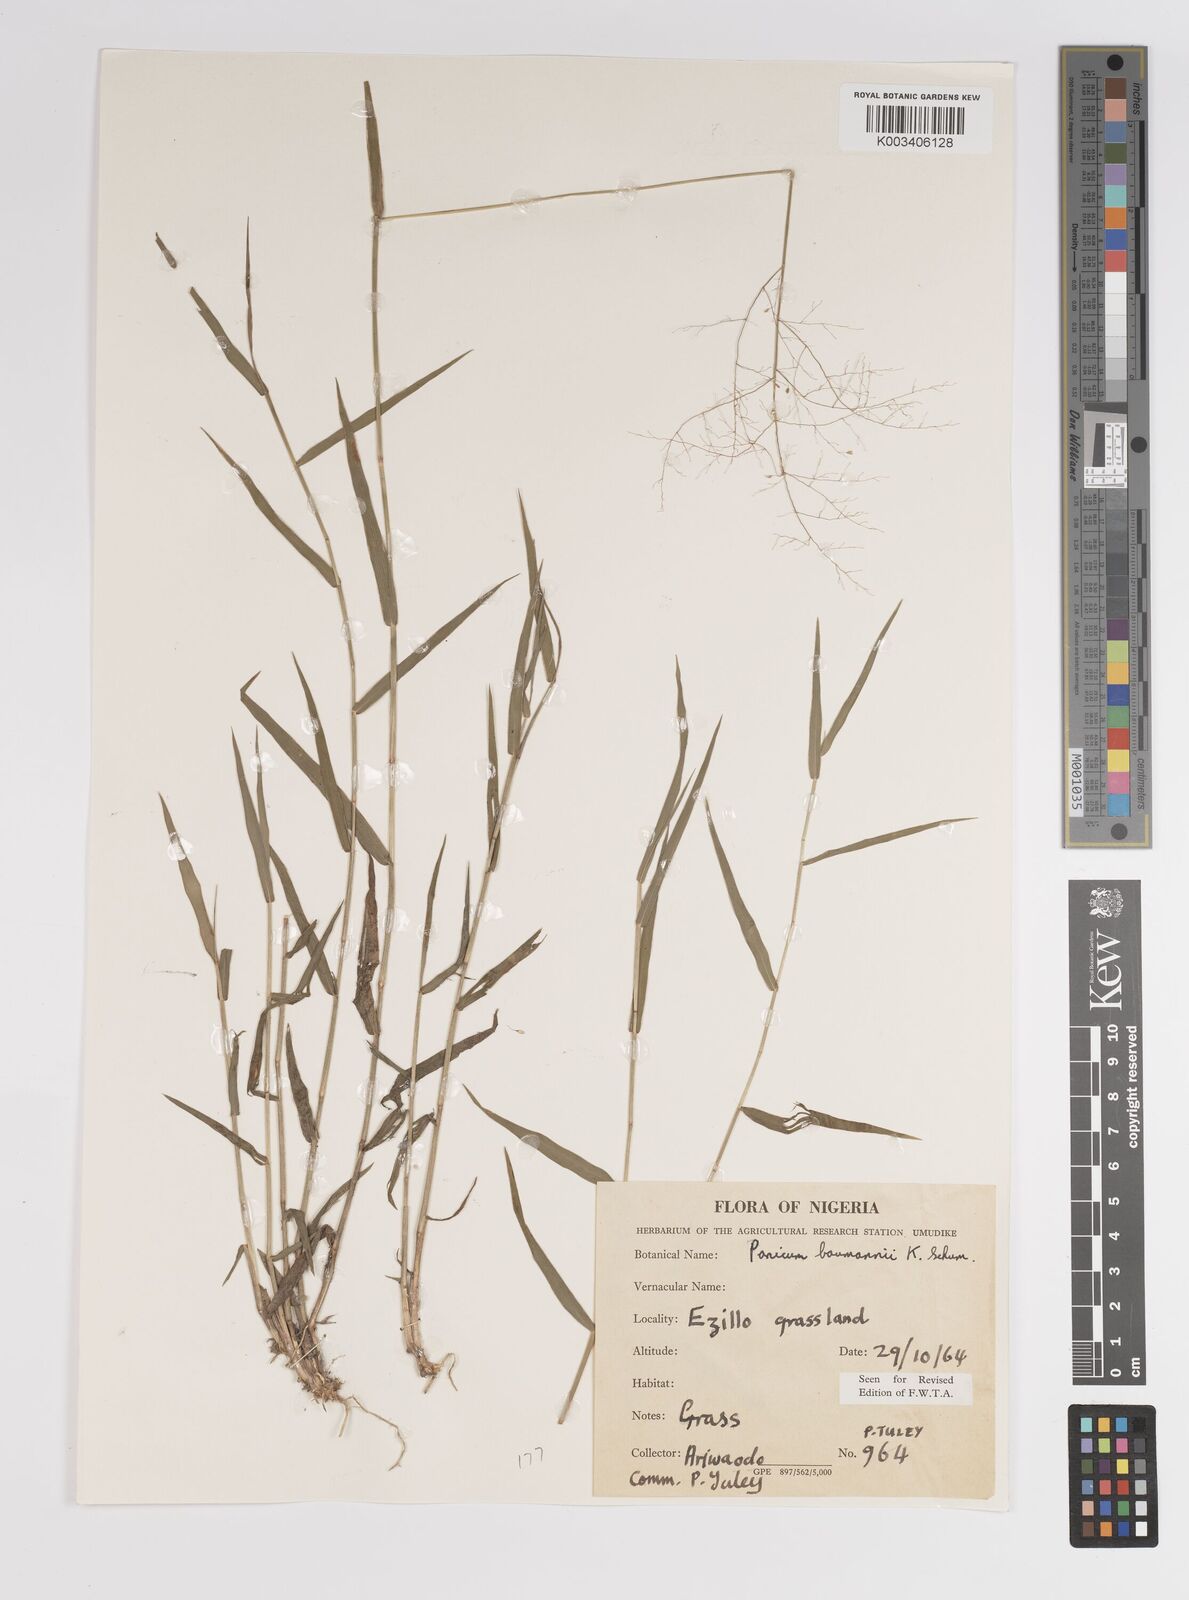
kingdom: Plantae
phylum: Tracheophyta
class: Liliopsida
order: Poales
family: Poaceae
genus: Trichanthecium
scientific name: Trichanthecium nervatum
